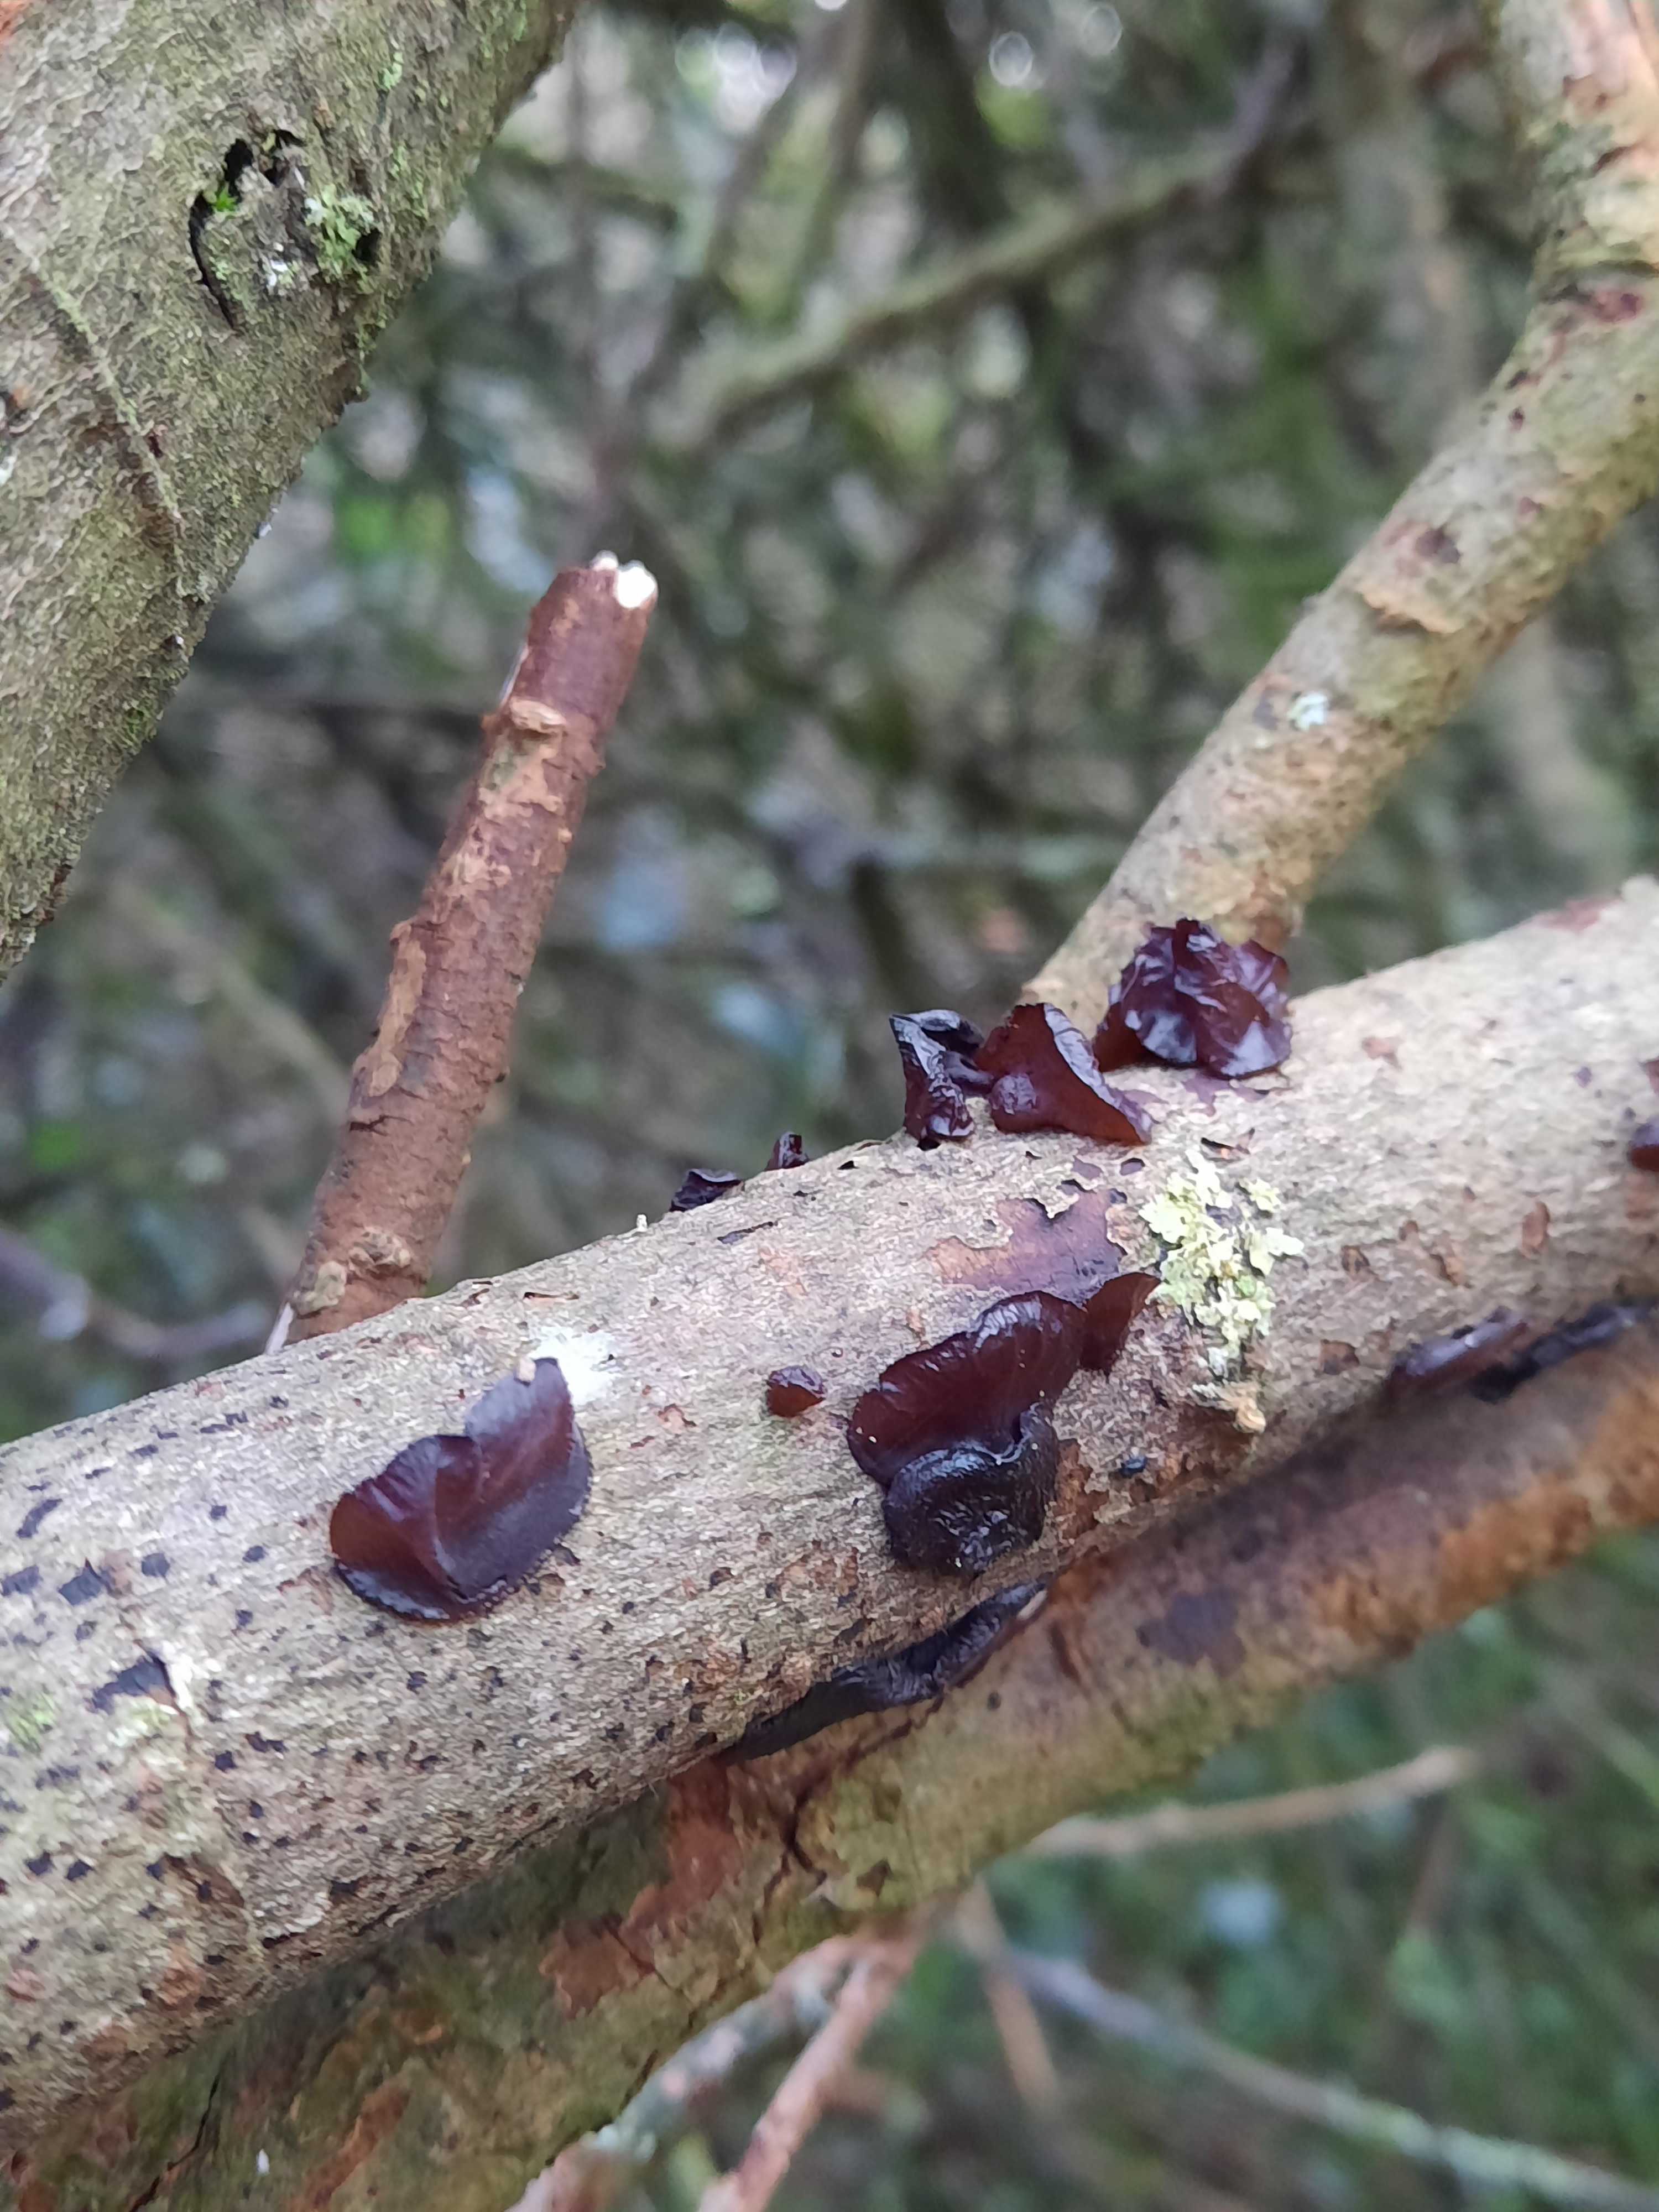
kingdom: Fungi
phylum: Basidiomycota
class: Agaricomycetes
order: Auriculariales
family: Auriculariaceae
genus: Exidia
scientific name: Exidia recisa
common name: pile-bævretop
